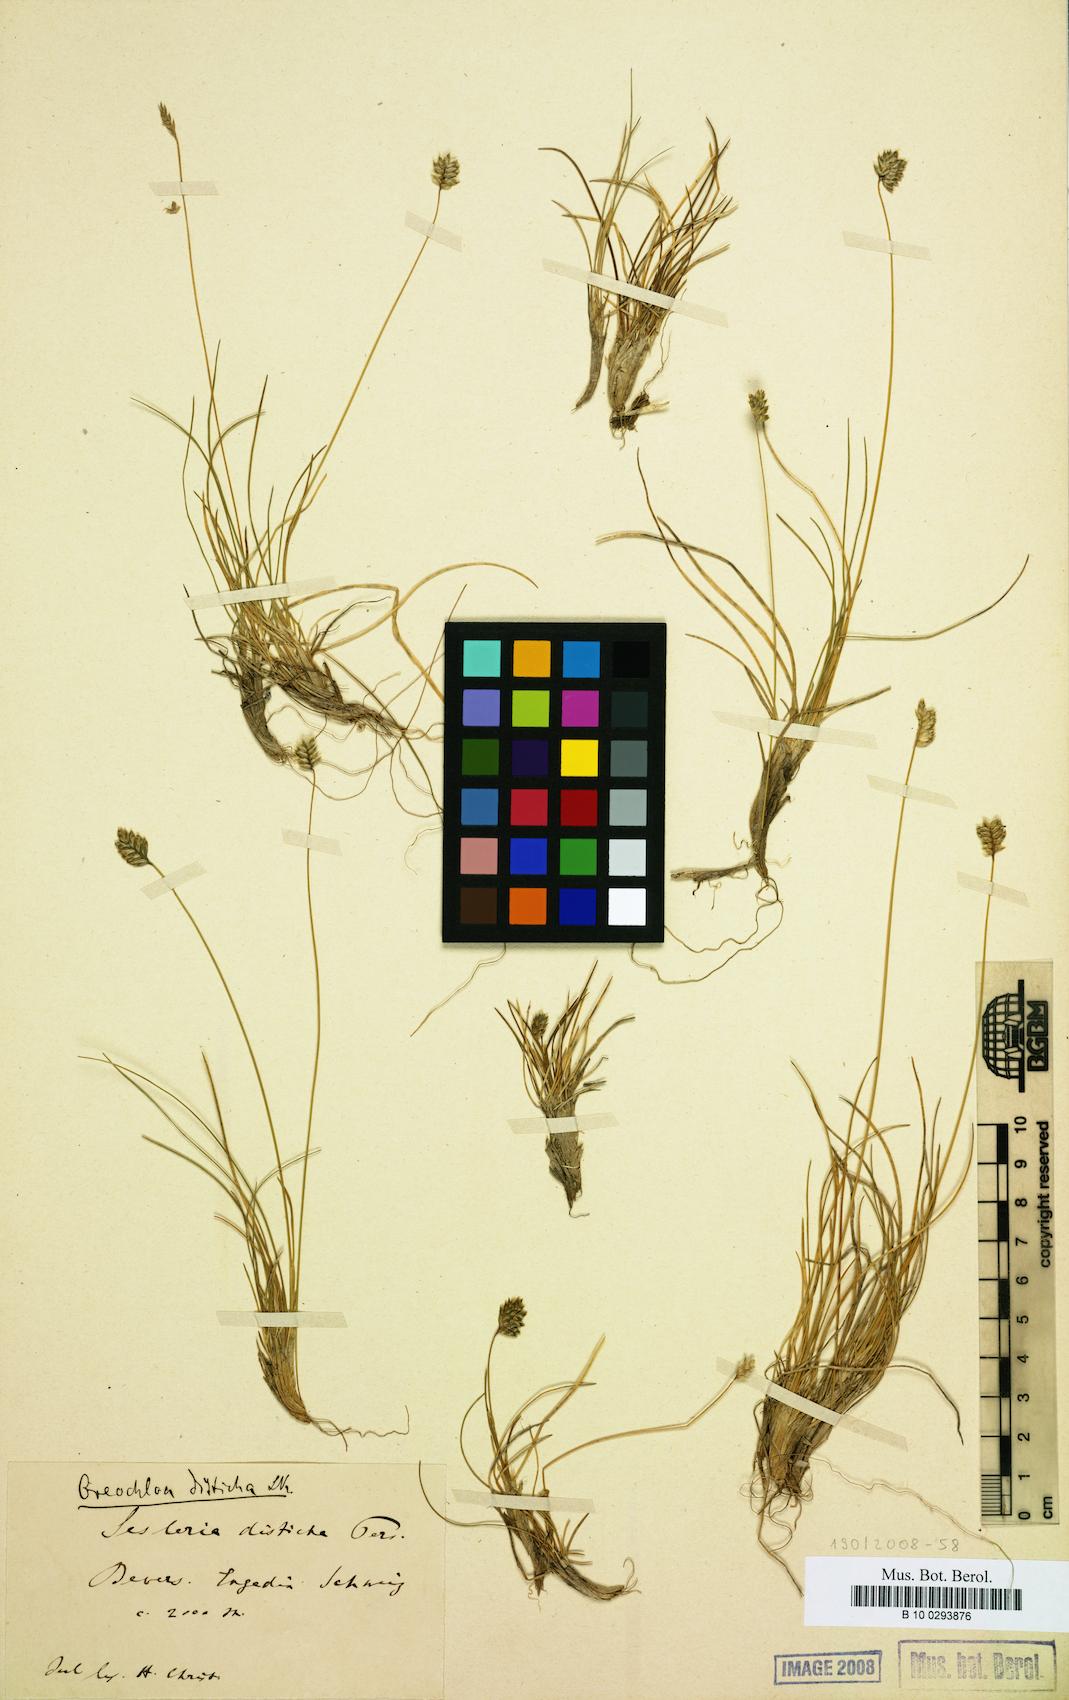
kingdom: Plantae
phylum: Tracheophyta
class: Liliopsida
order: Poales
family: Poaceae
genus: Oreochloa
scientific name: Oreochloa disticha
